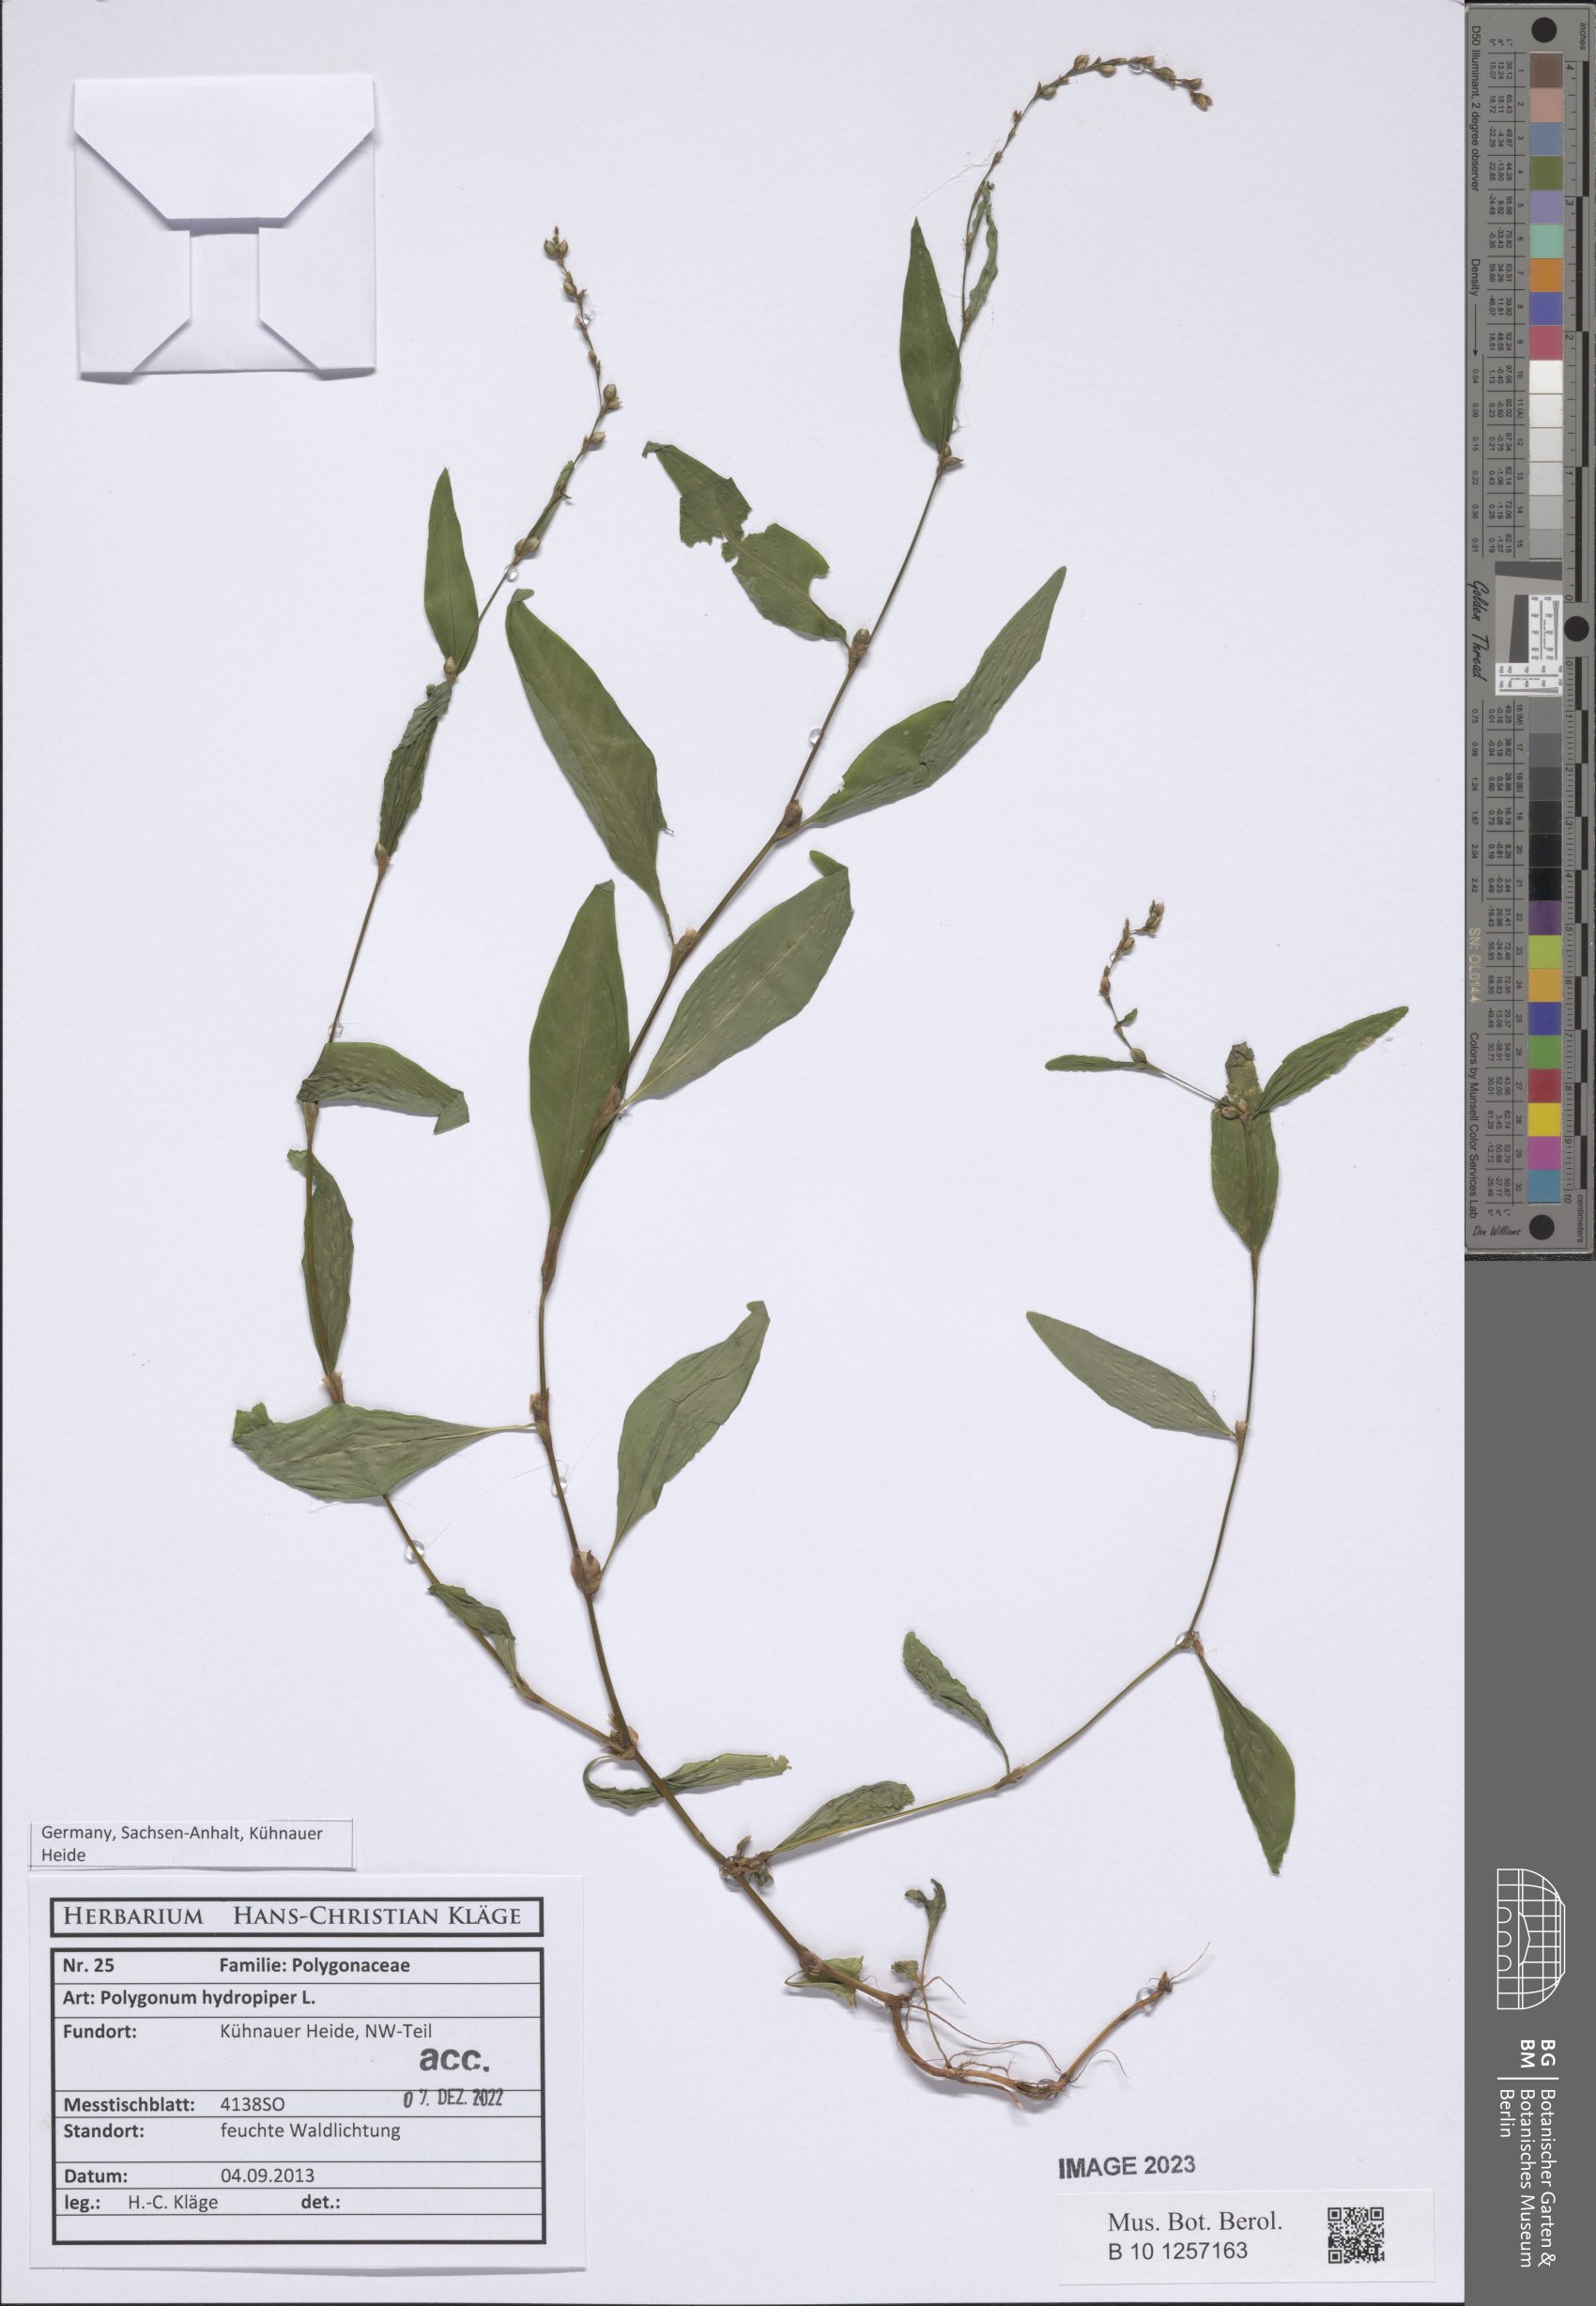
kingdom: Plantae
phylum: Tracheophyta
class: Magnoliopsida
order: Caryophyllales
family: Polygonaceae
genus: Persicaria
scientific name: Persicaria hydropiper
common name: Water-pepper
